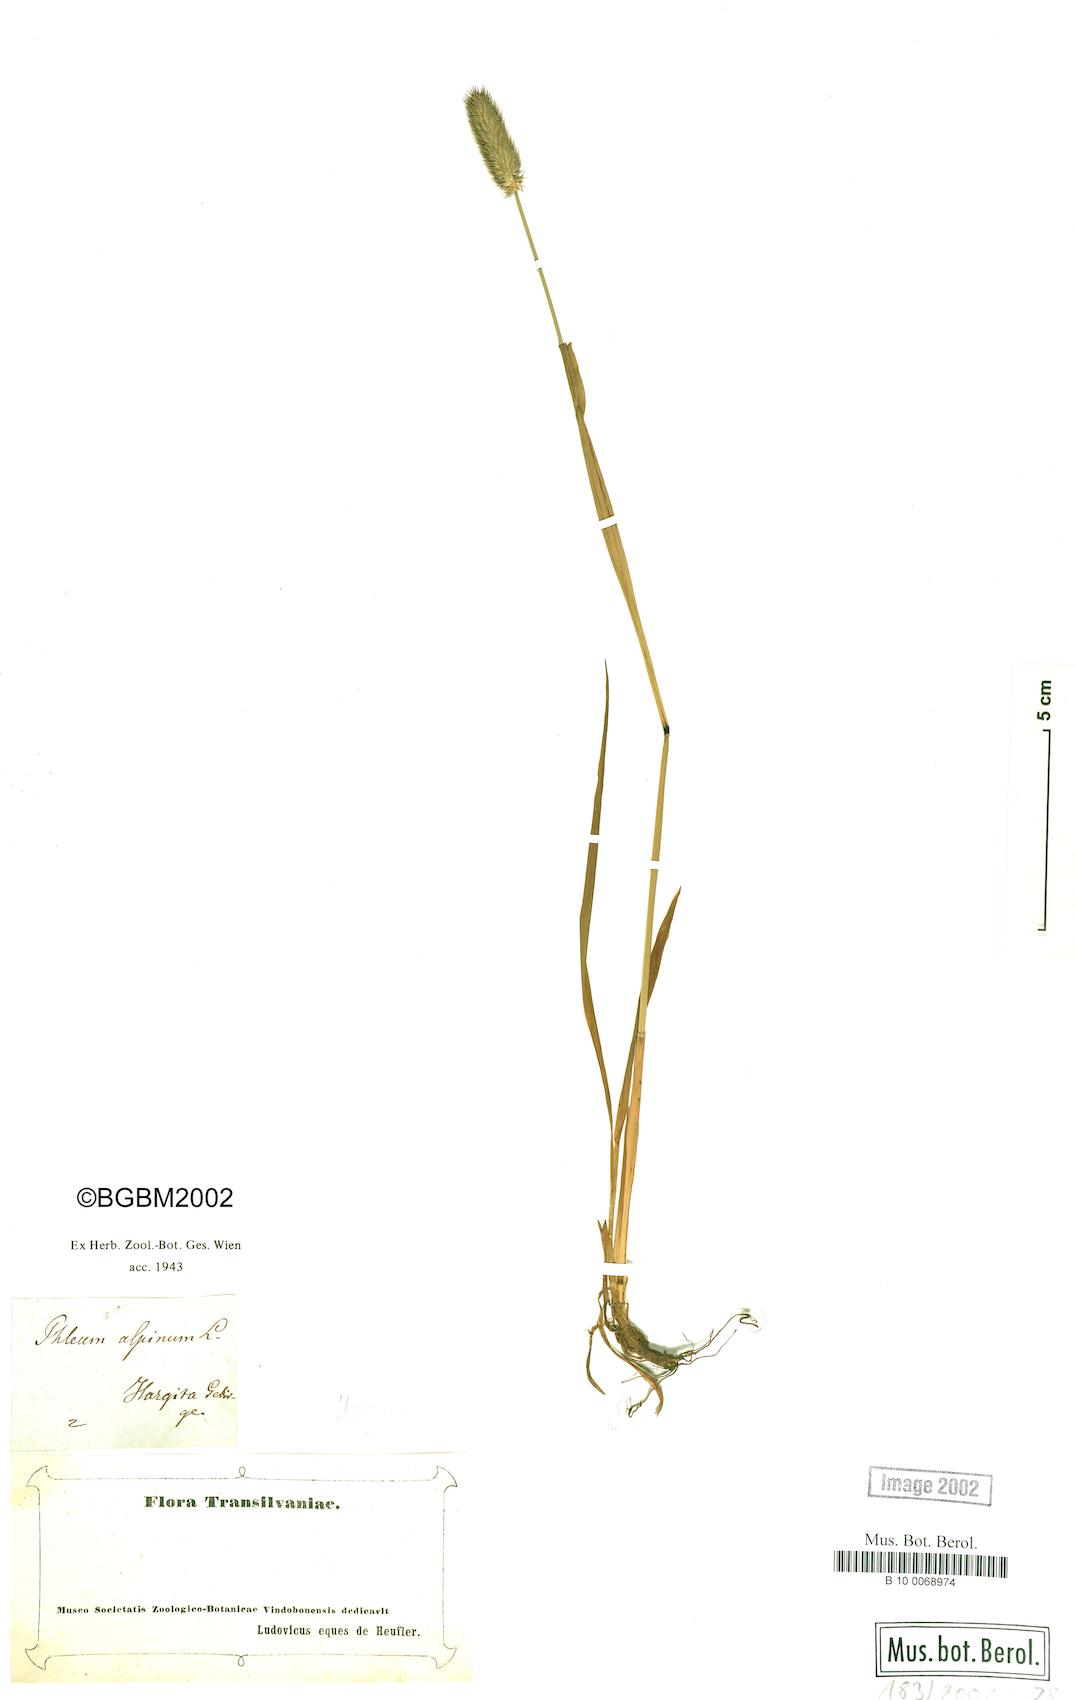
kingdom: Plantae
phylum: Tracheophyta
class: Liliopsida
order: Poales
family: Poaceae
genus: Phleum
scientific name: Phleum alpinum
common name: Alpine cat's-tail
